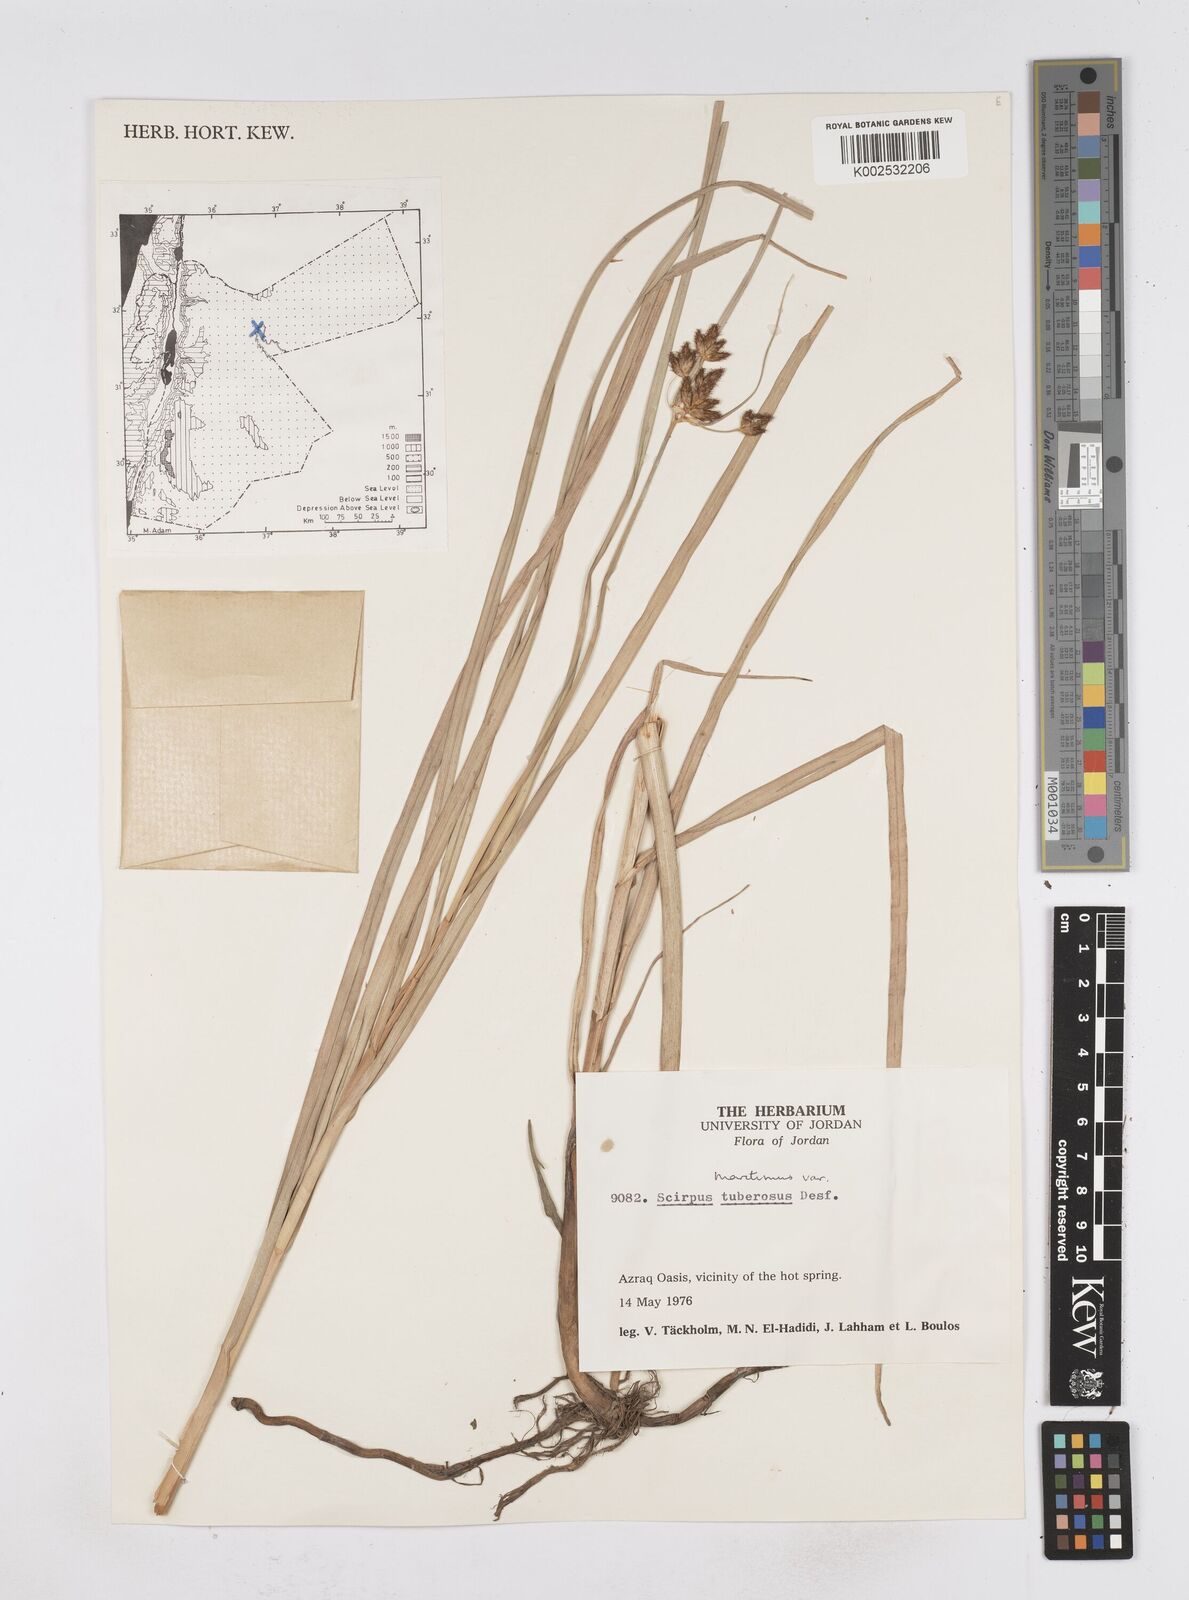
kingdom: Plantae
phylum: Tracheophyta
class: Liliopsida
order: Poales
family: Cyperaceae
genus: Bolboschoenus
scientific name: Bolboschoenus maritimus
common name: Sea club-rush
